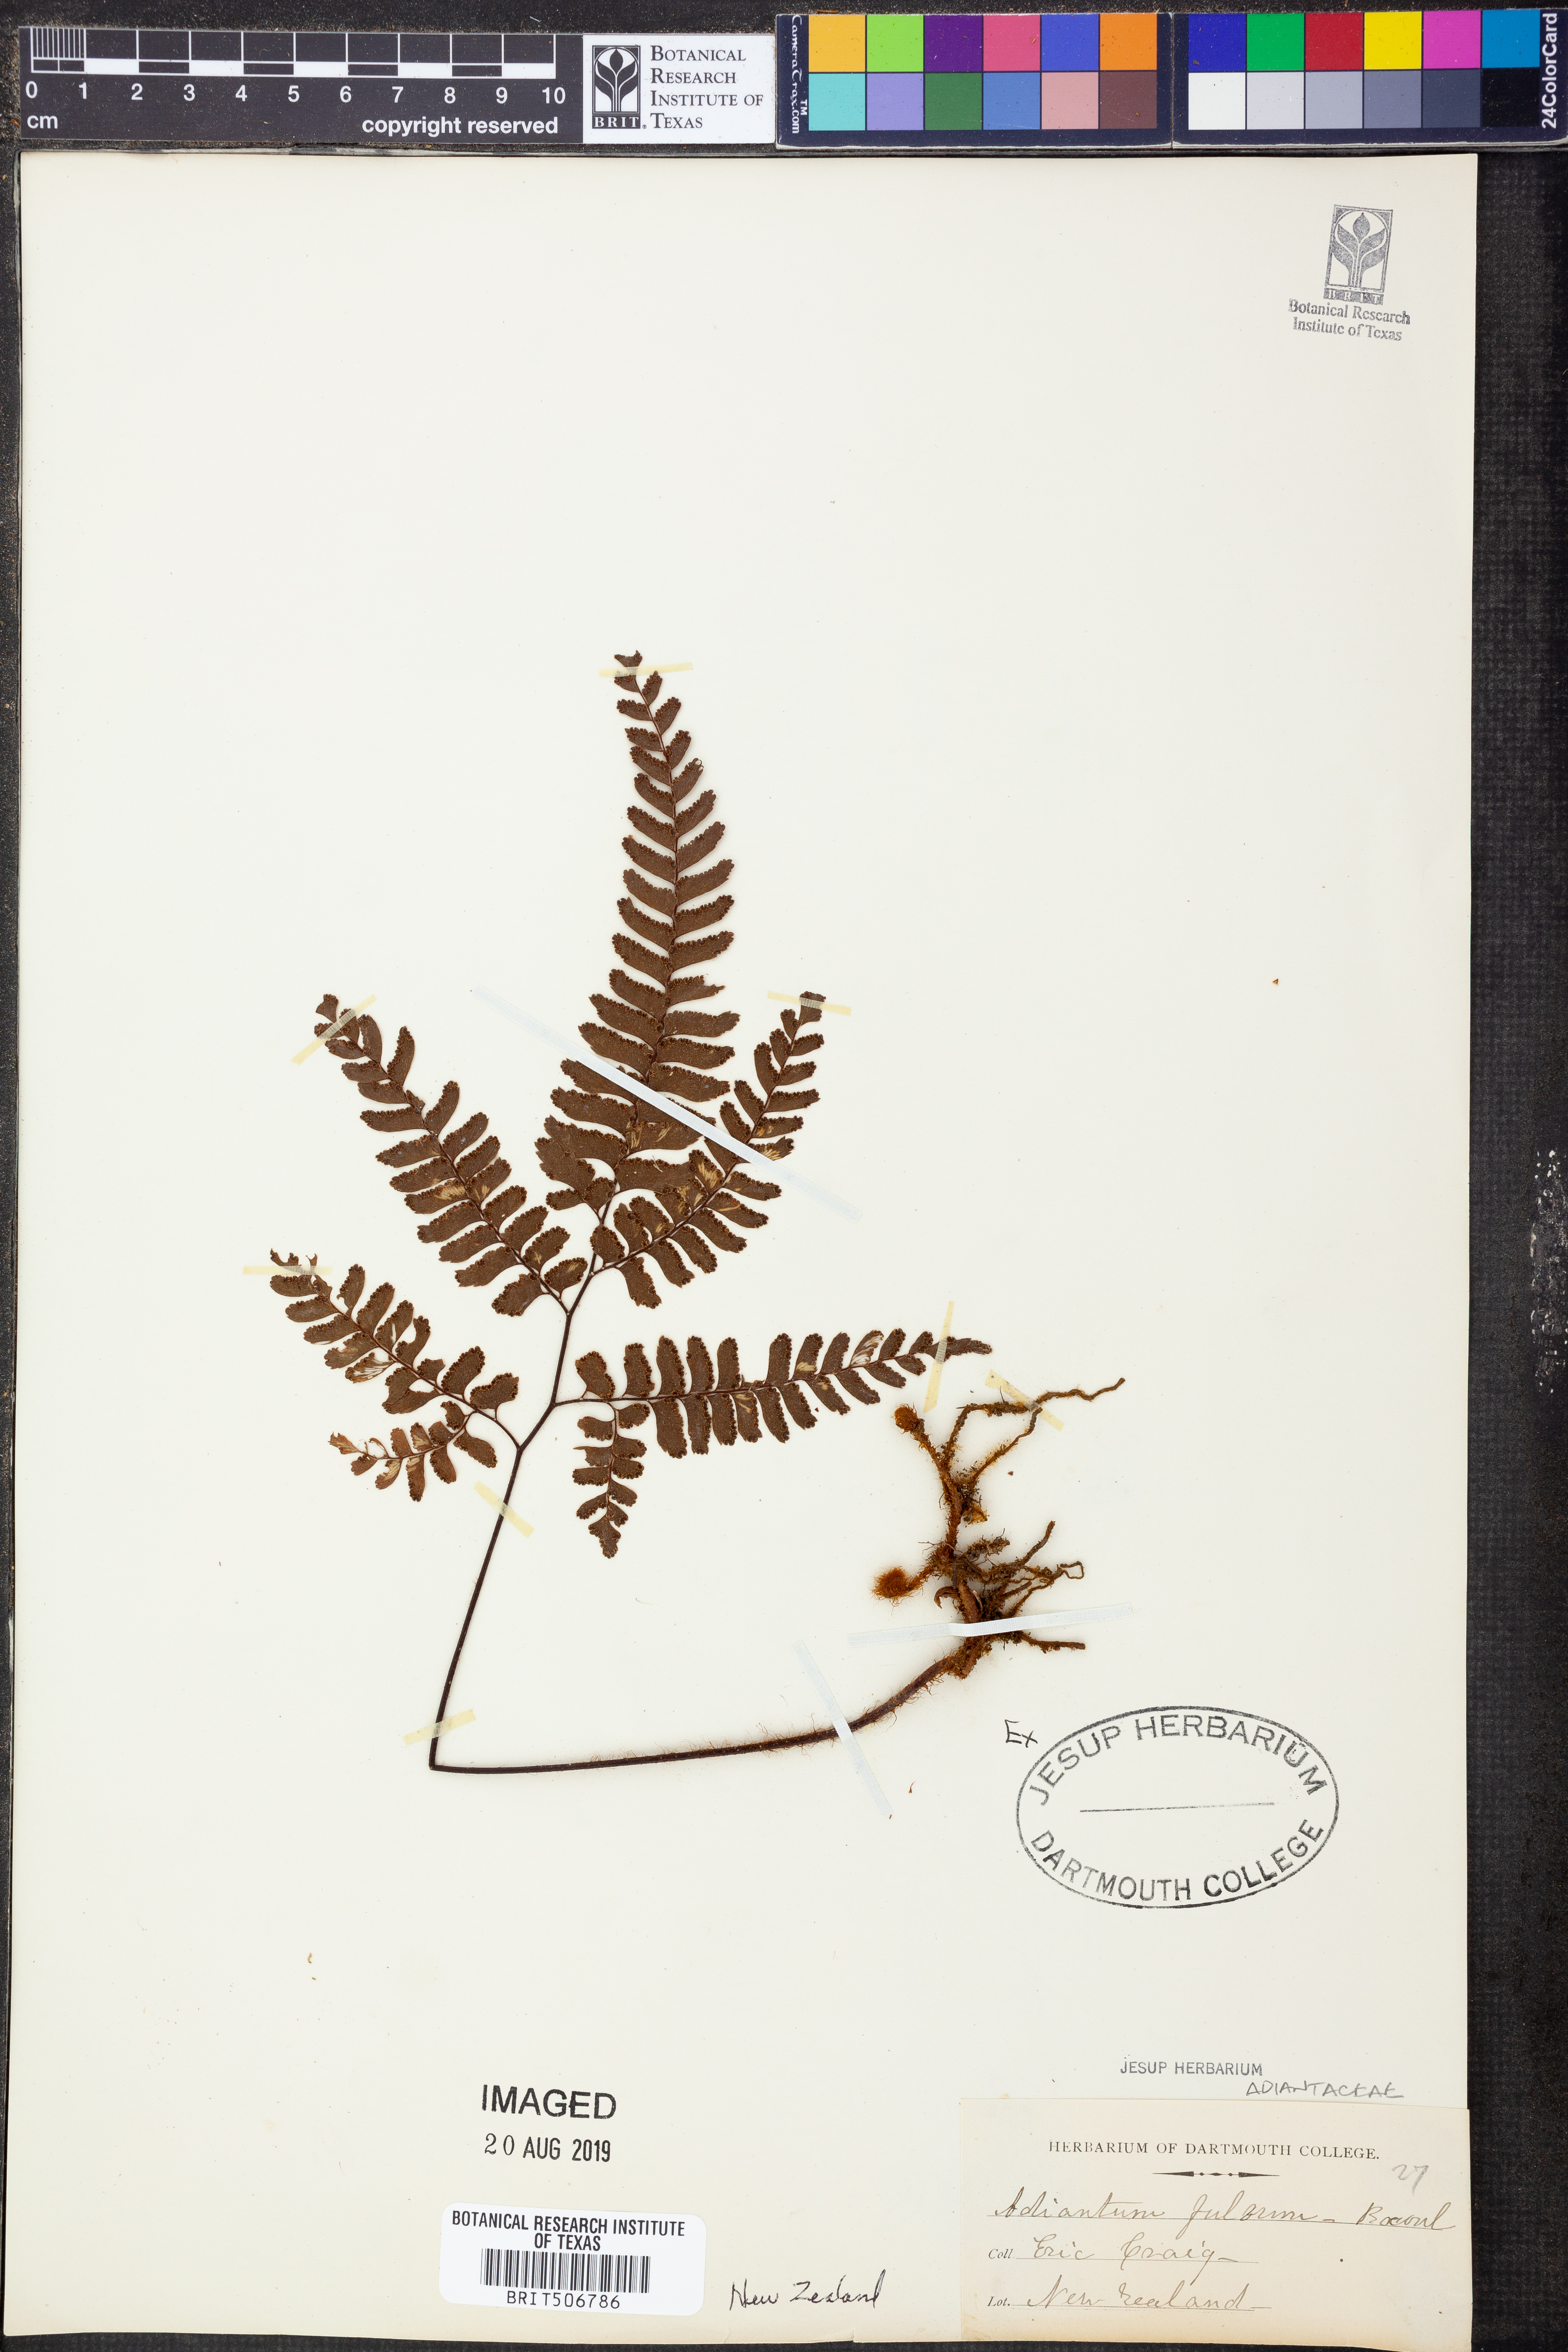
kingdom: Plantae
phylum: Tracheophyta
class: Polypodiopsida
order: Polypodiales
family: Pteridaceae
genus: Adiantum
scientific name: Adiantum fulvum
